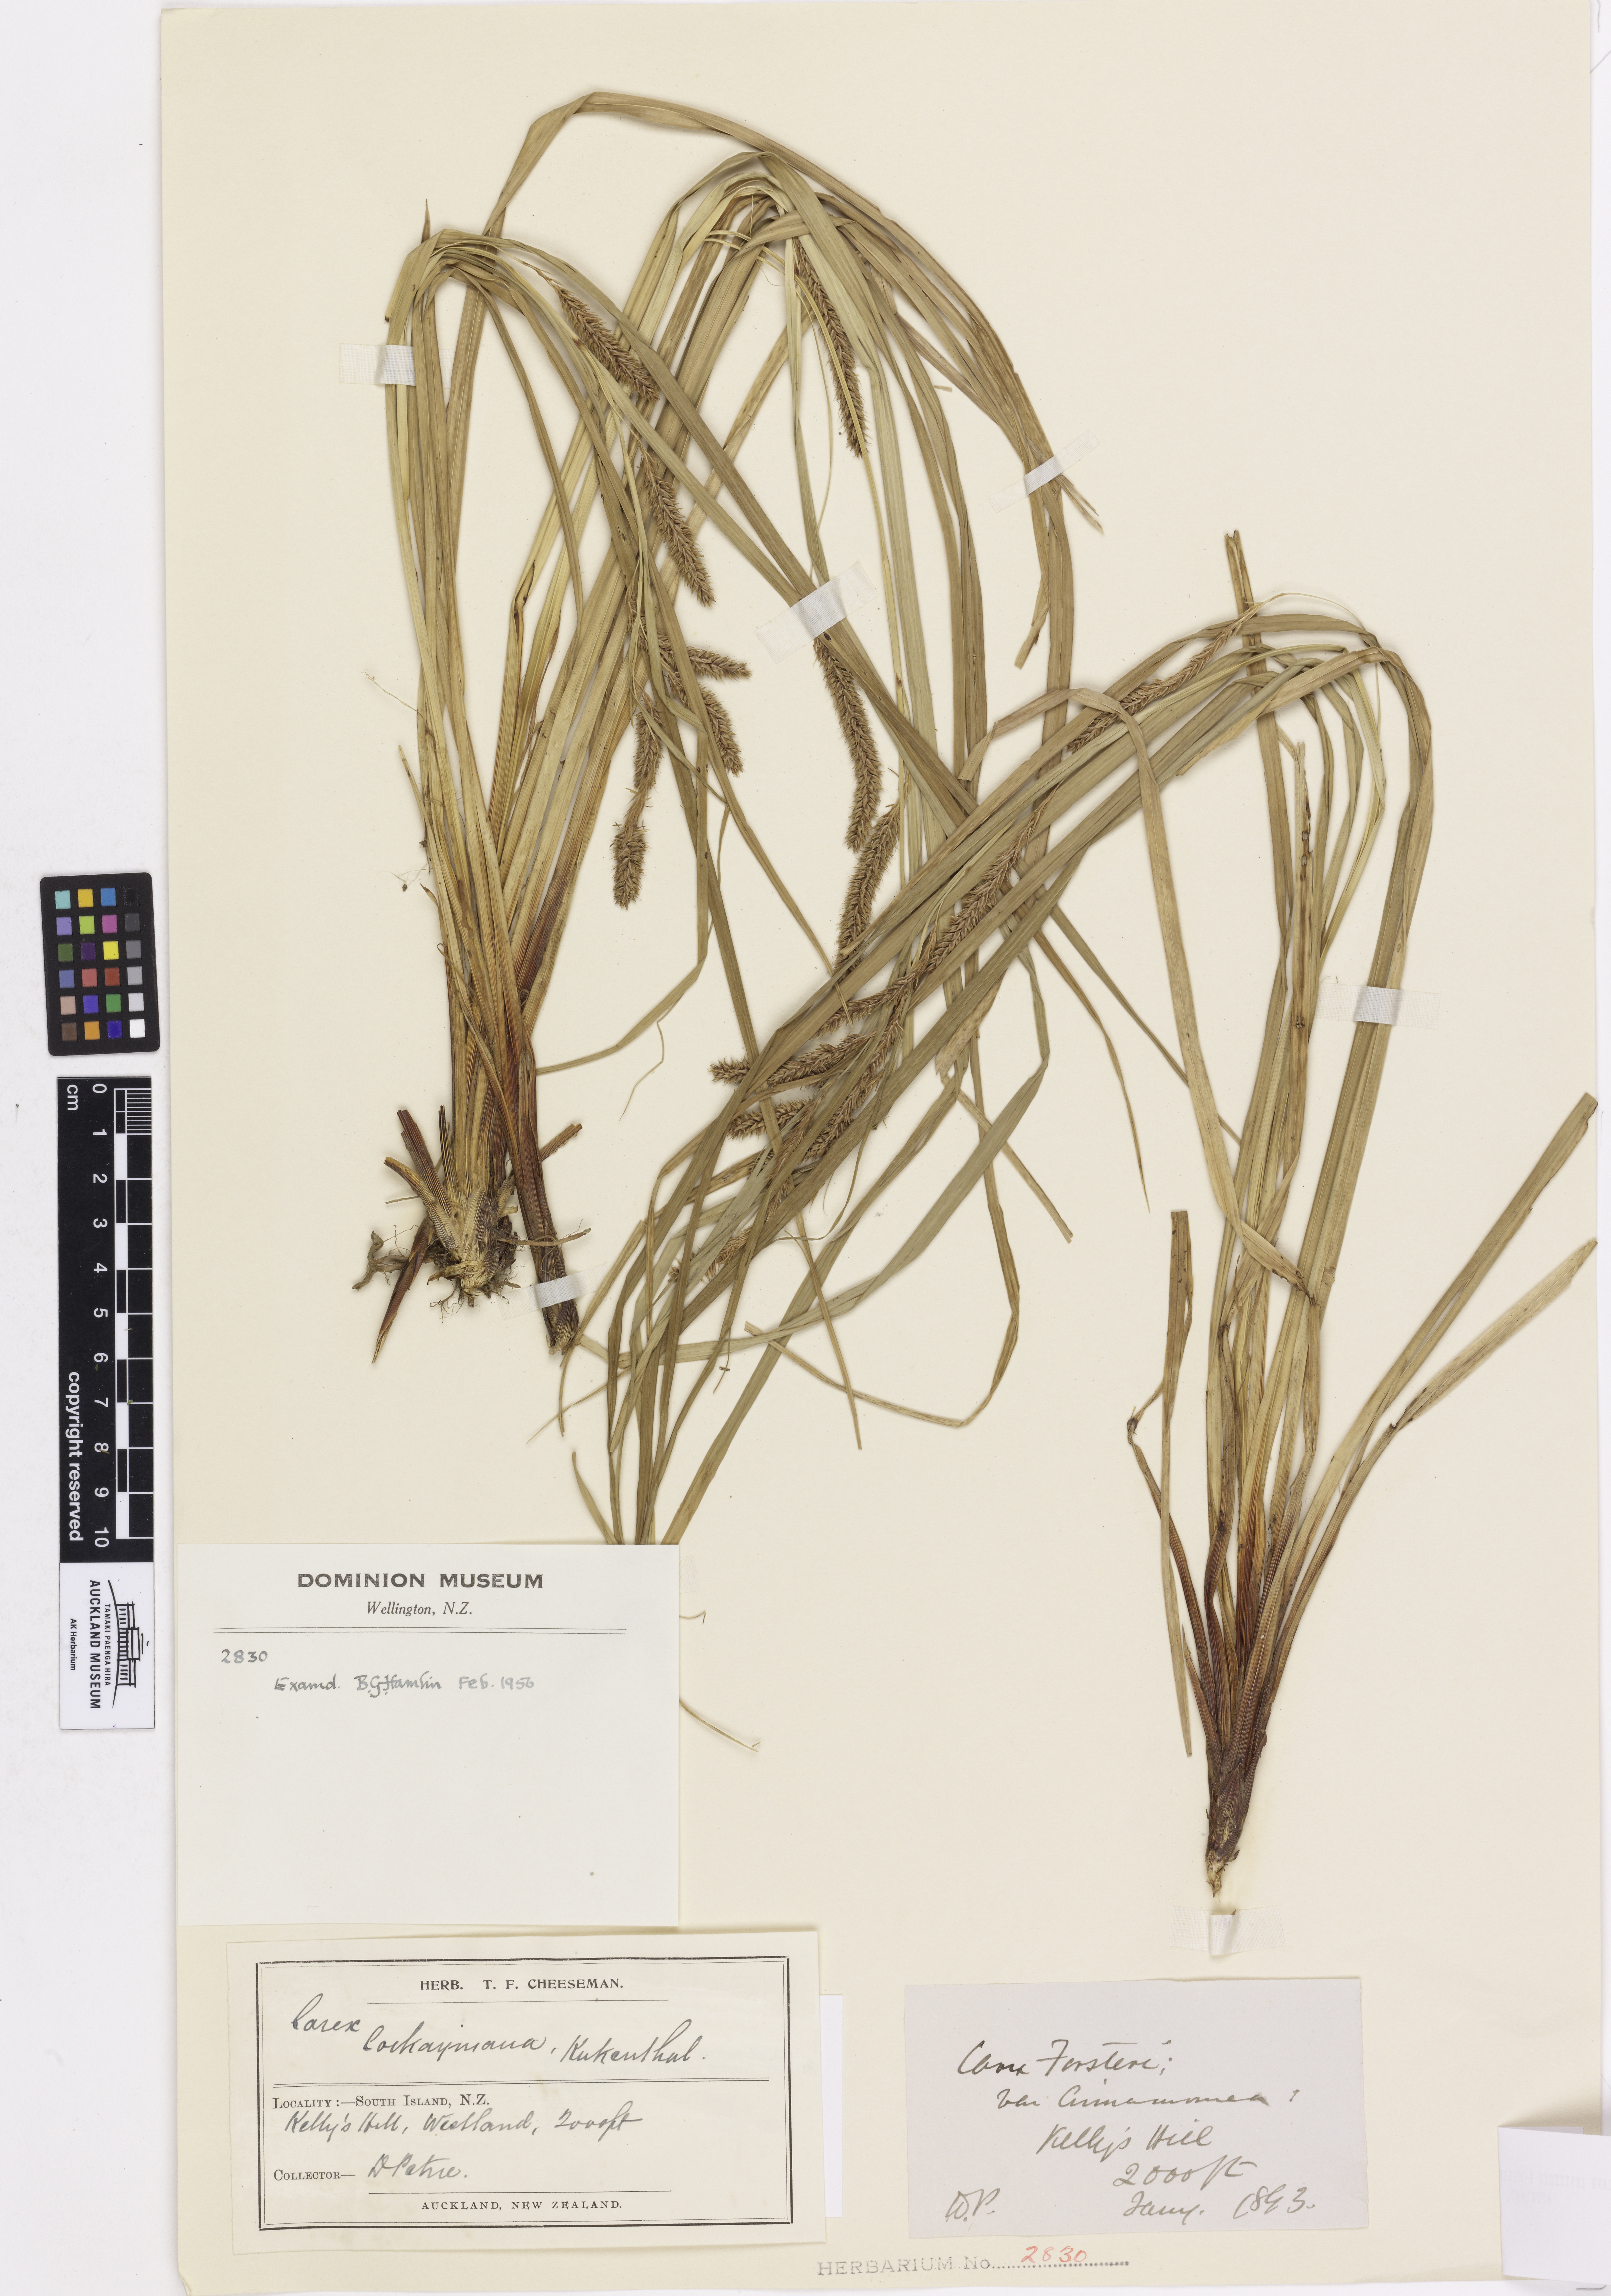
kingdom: Plantae
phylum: Tracheophyta
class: Liliopsida
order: Poales
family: Cyperaceae
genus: Carex
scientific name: Carex cockayneana
